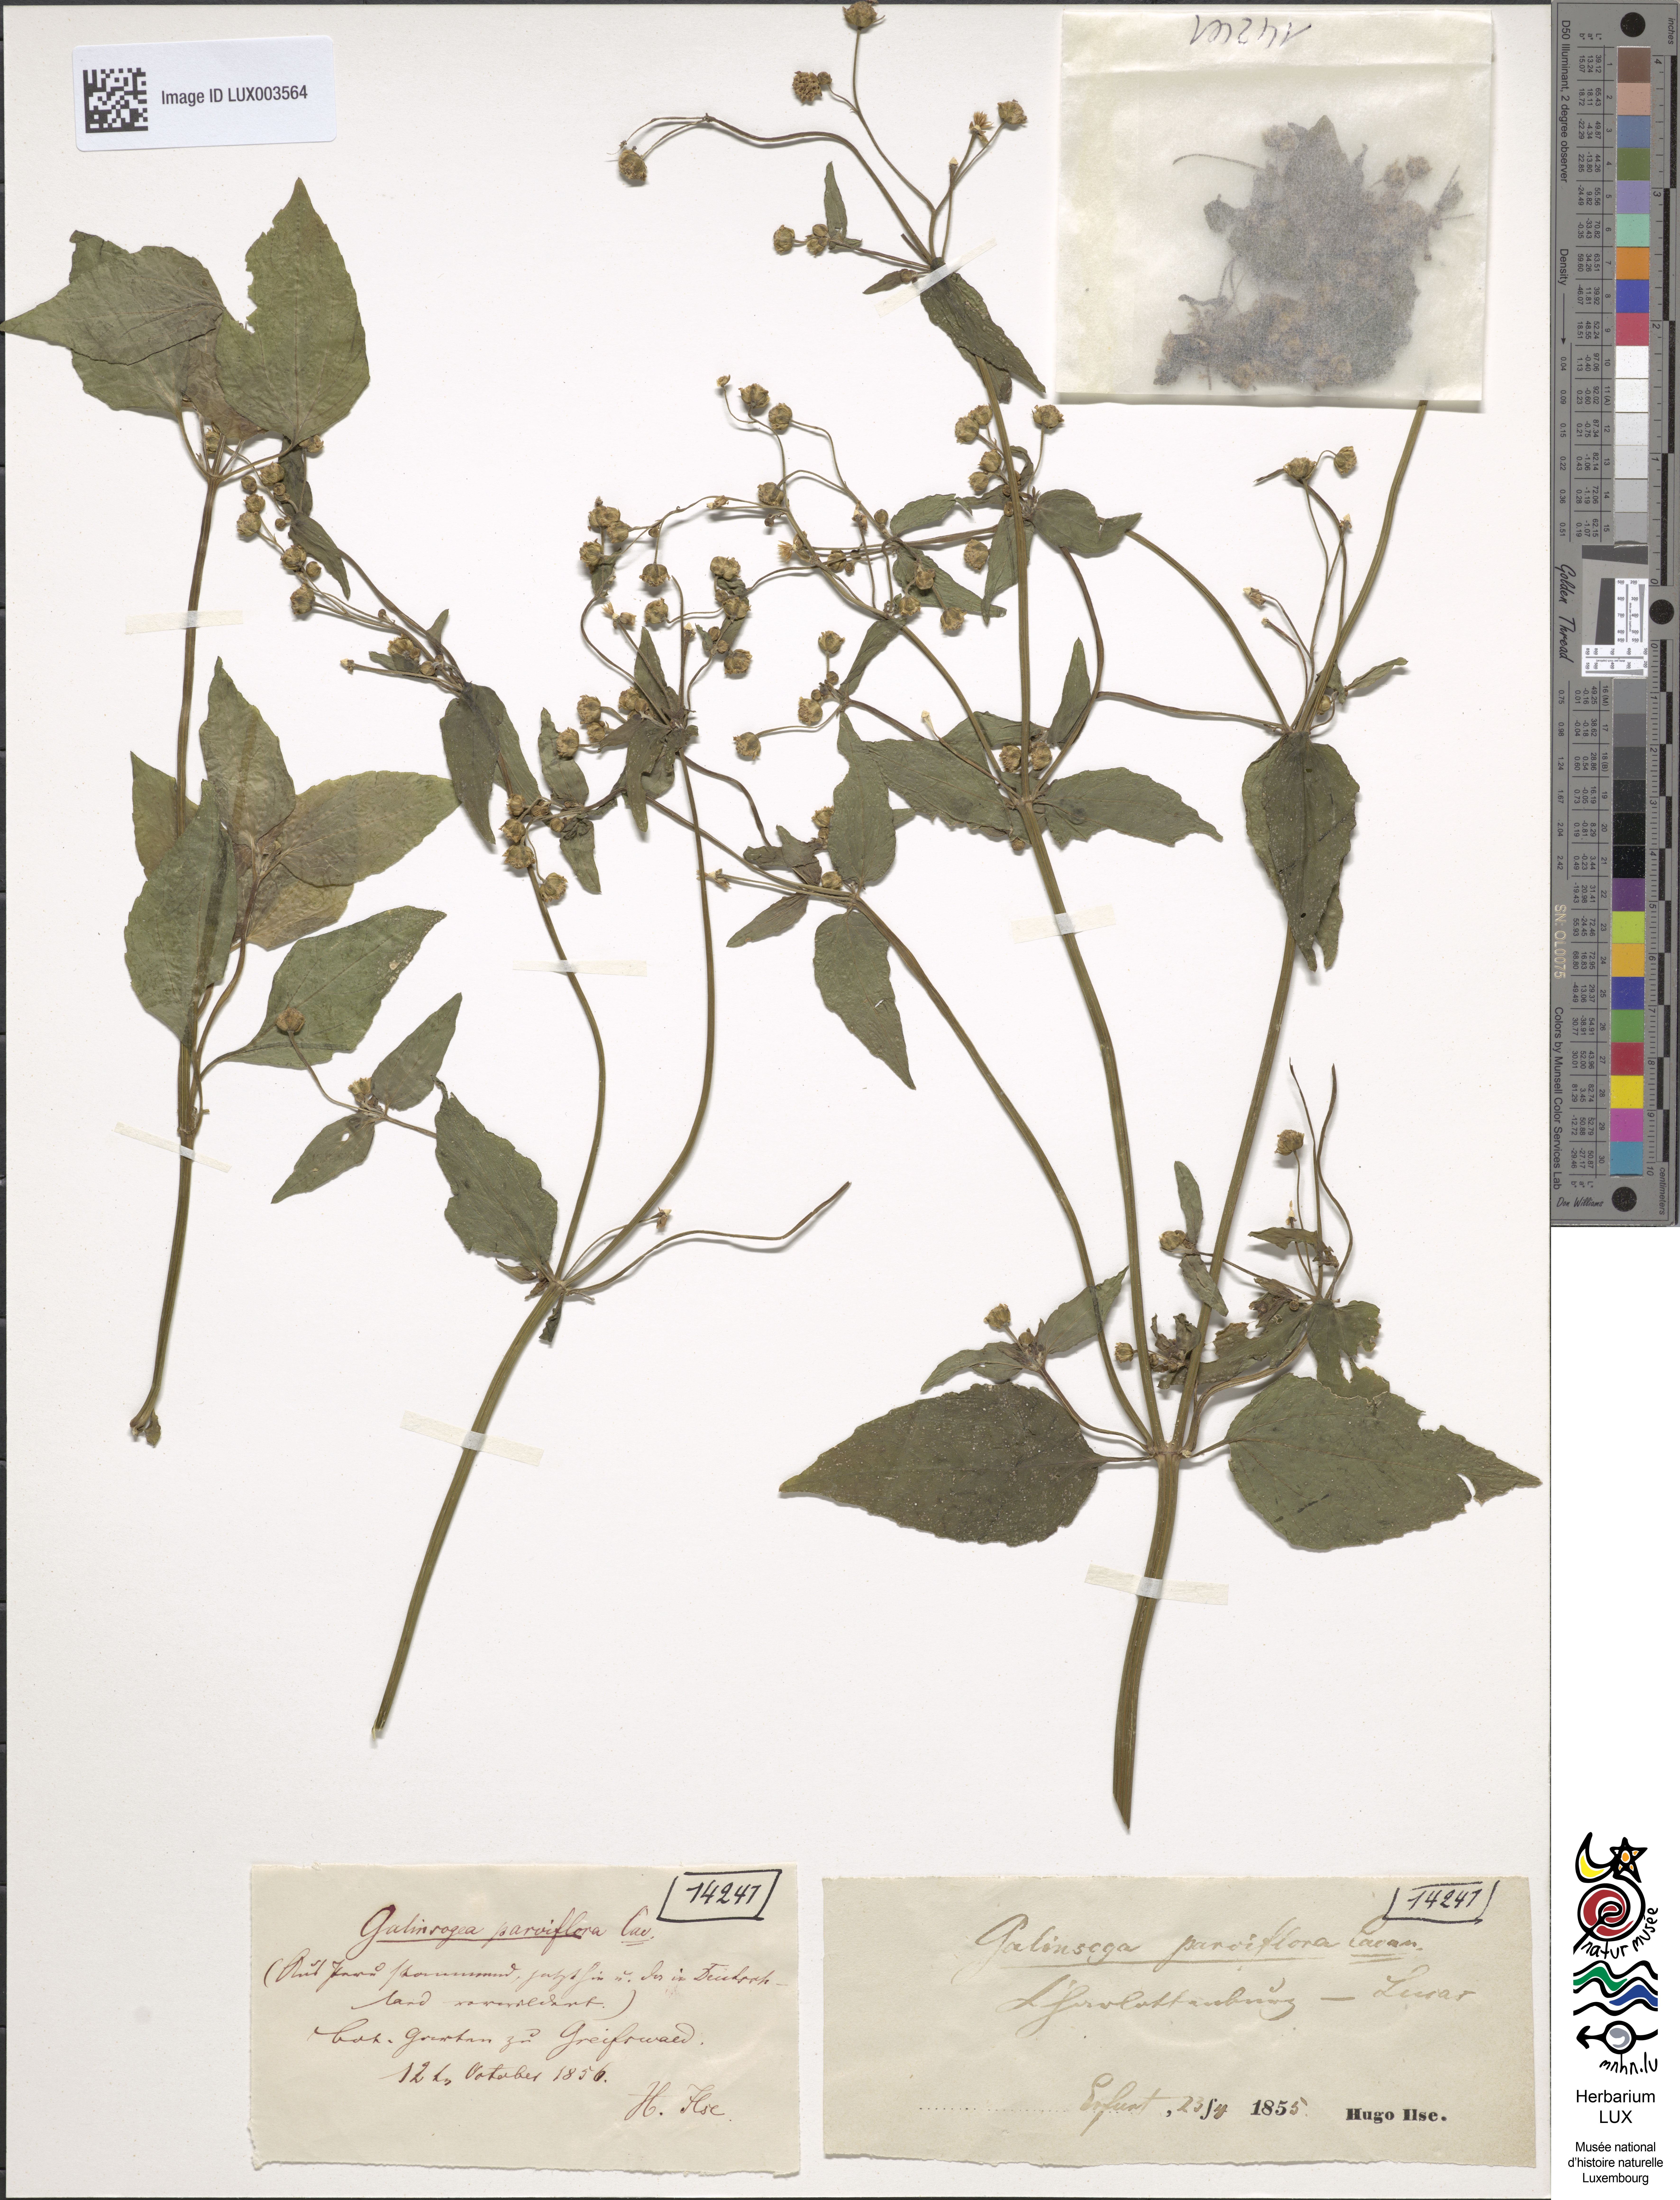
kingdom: Plantae
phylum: Tracheophyta
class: Magnoliopsida
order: Asterales
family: Asteraceae
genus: Galinsoga
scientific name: Galinsoga parviflora
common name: Gallant soldier
